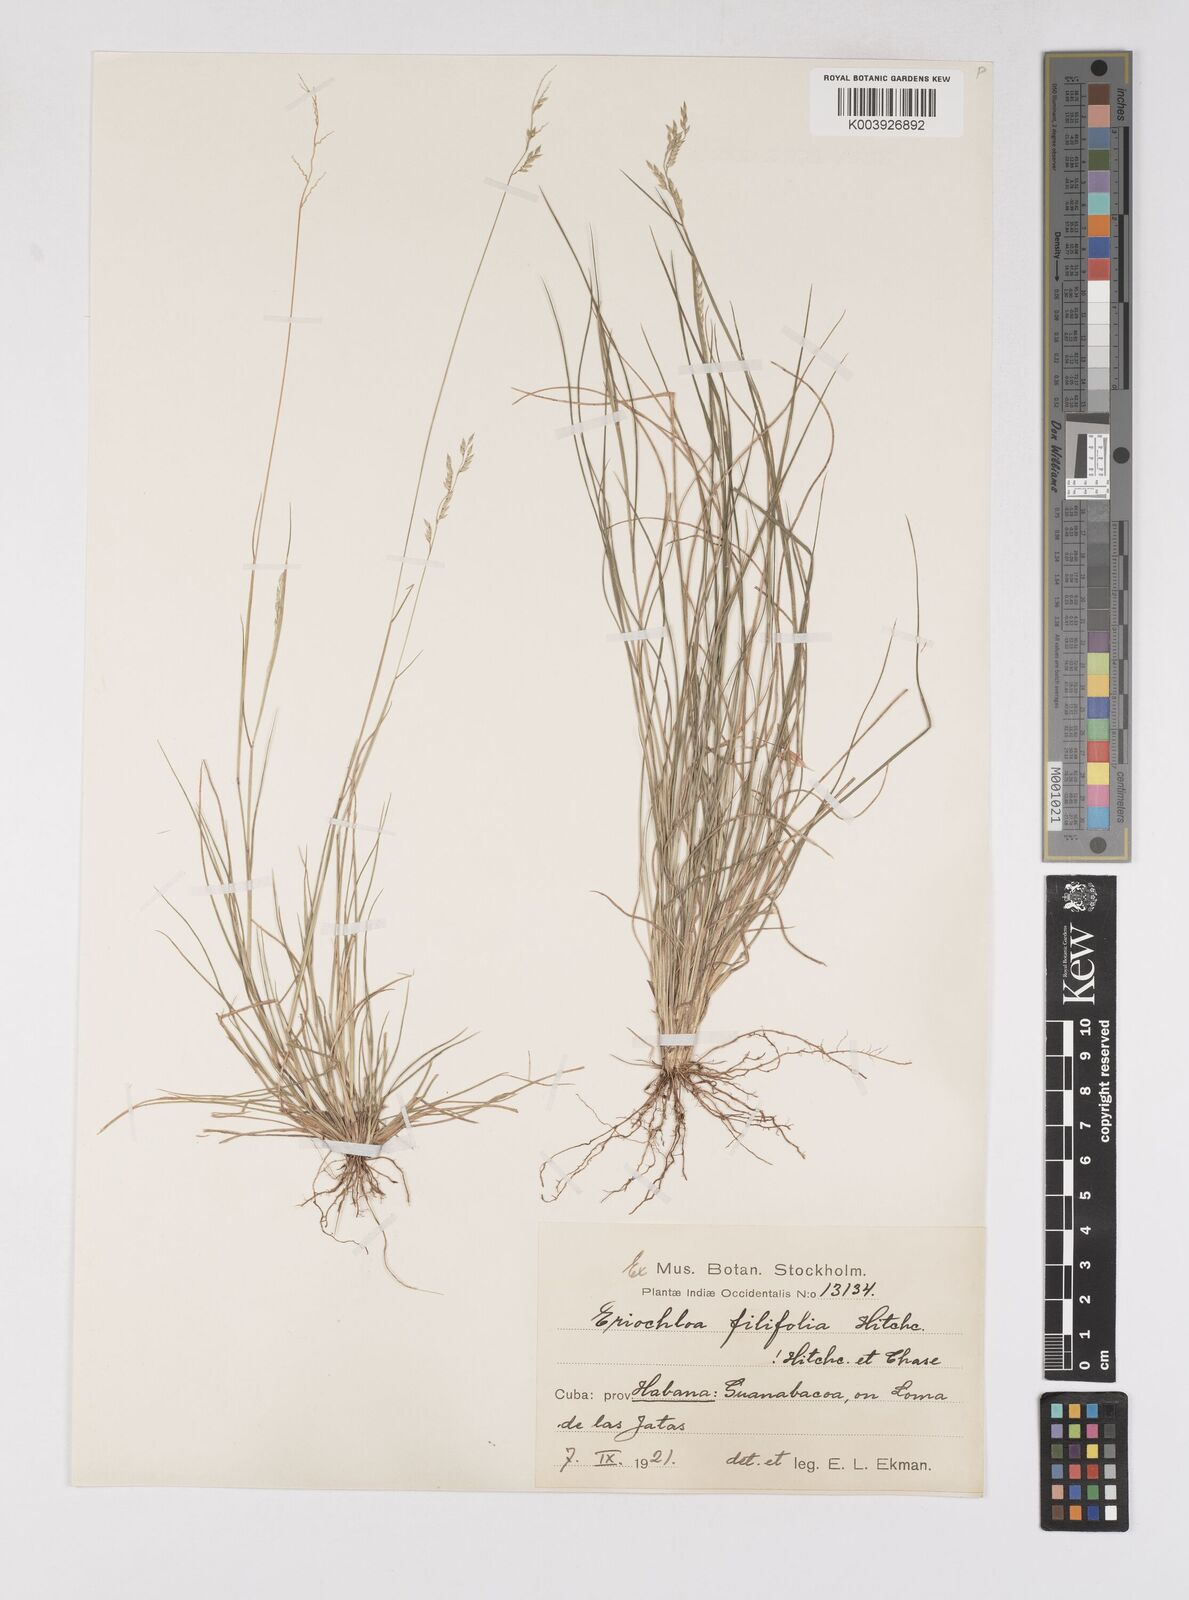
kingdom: Plantae
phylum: Tracheophyta
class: Liliopsida
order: Poales
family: Poaceae
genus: Eriochloa
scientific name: Eriochloa setosa
